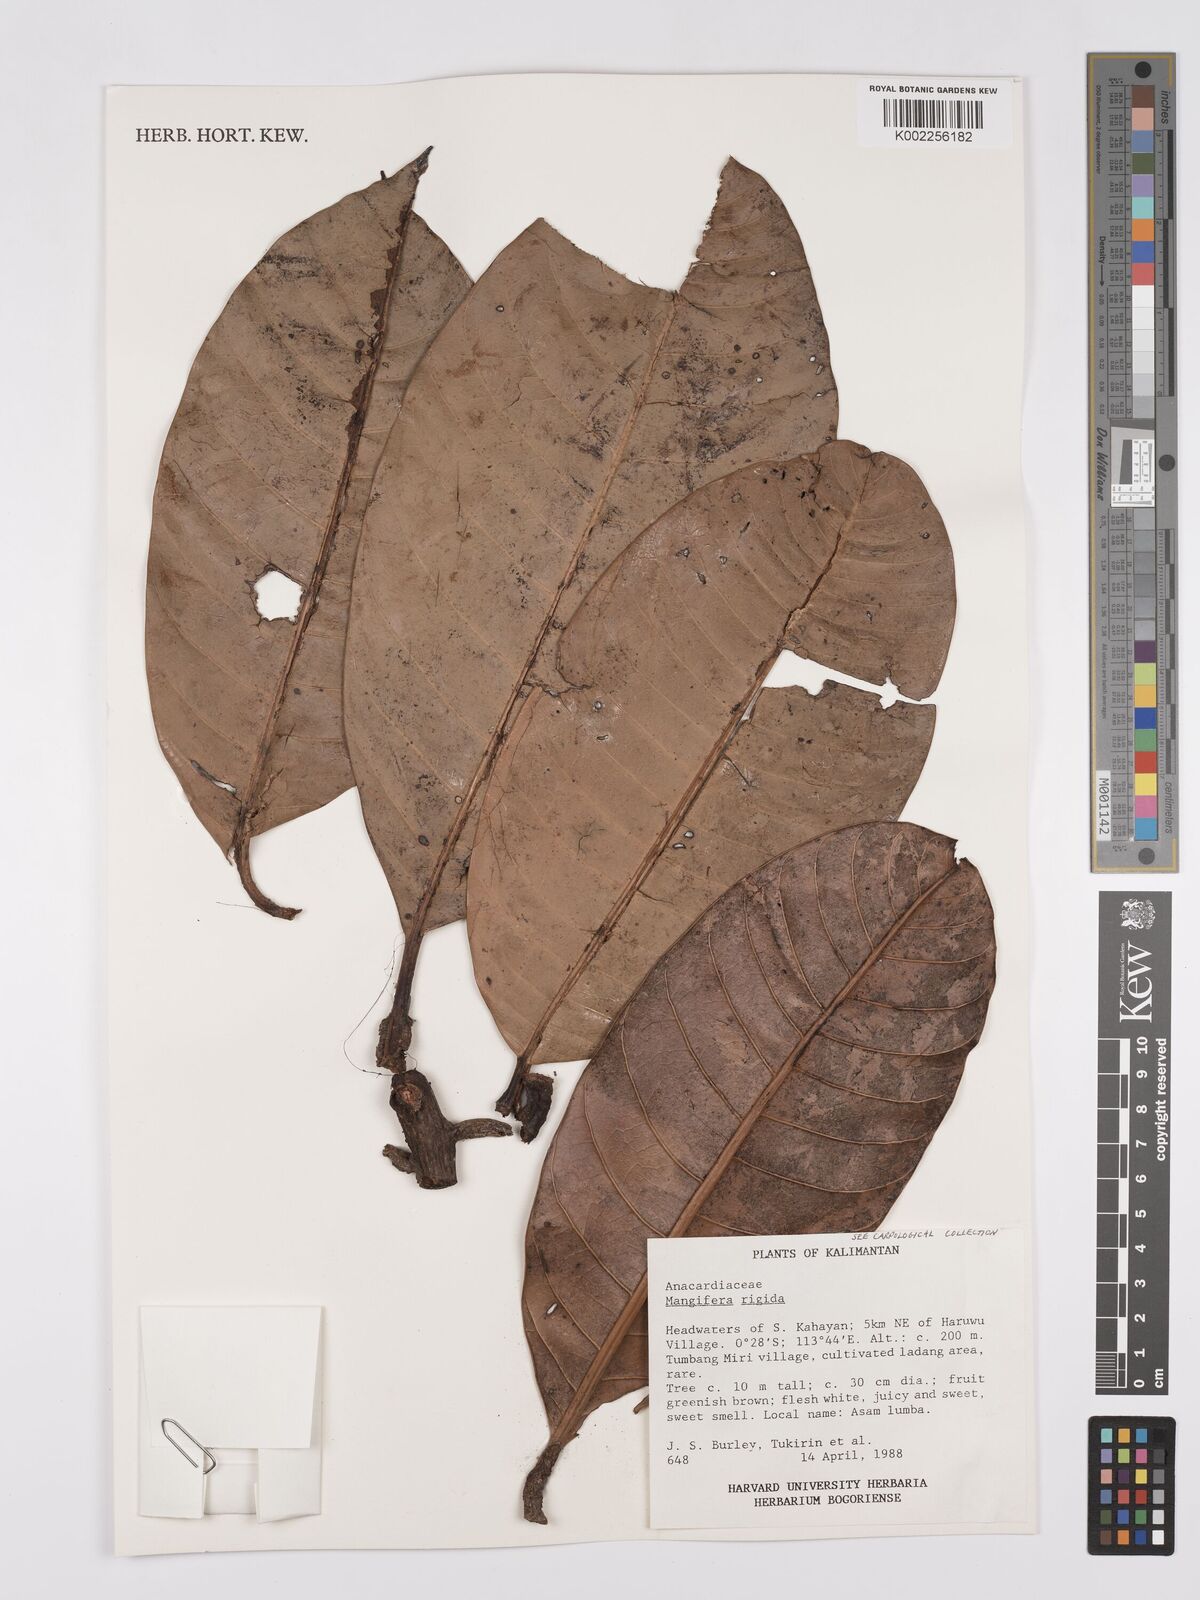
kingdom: Plantae
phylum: Tracheophyta
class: Magnoliopsida
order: Sapindales
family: Anacardiaceae
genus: Mangifera
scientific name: Mangifera quadrifida
